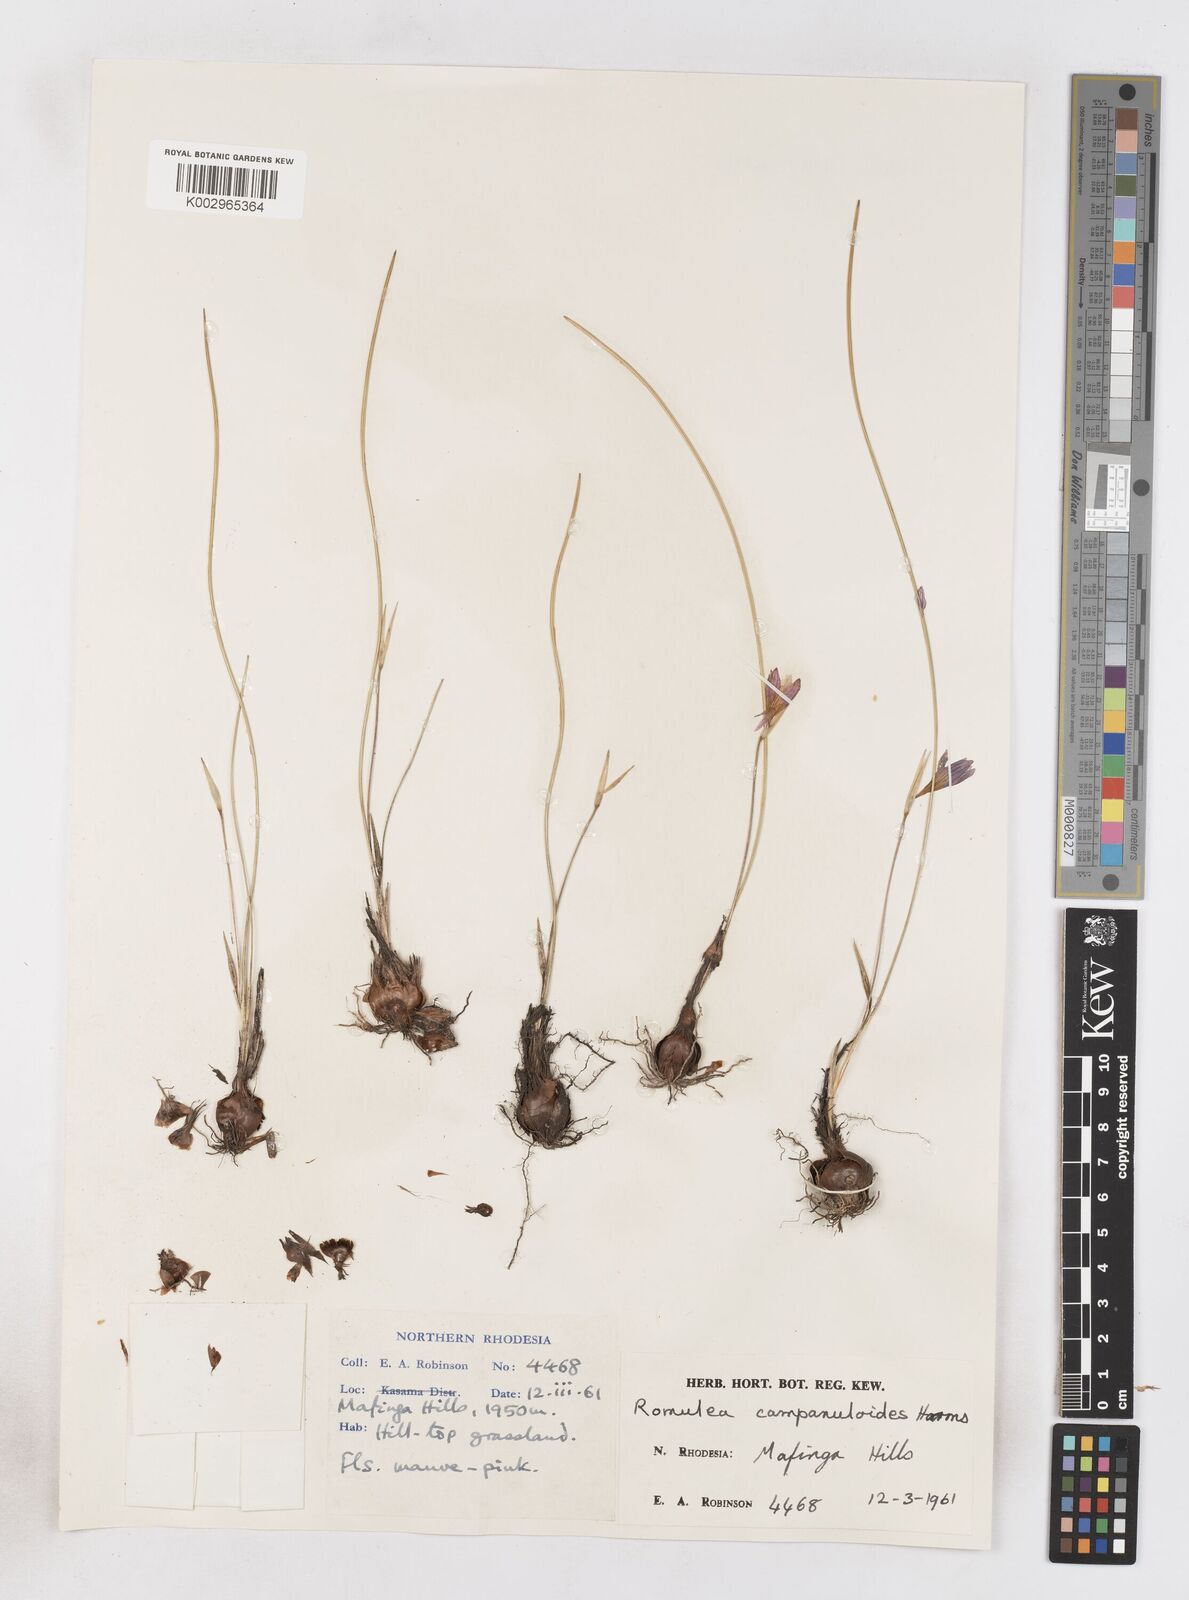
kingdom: Plantae
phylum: Tracheophyta
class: Liliopsida
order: Asparagales
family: Iridaceae
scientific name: Iridaceae
